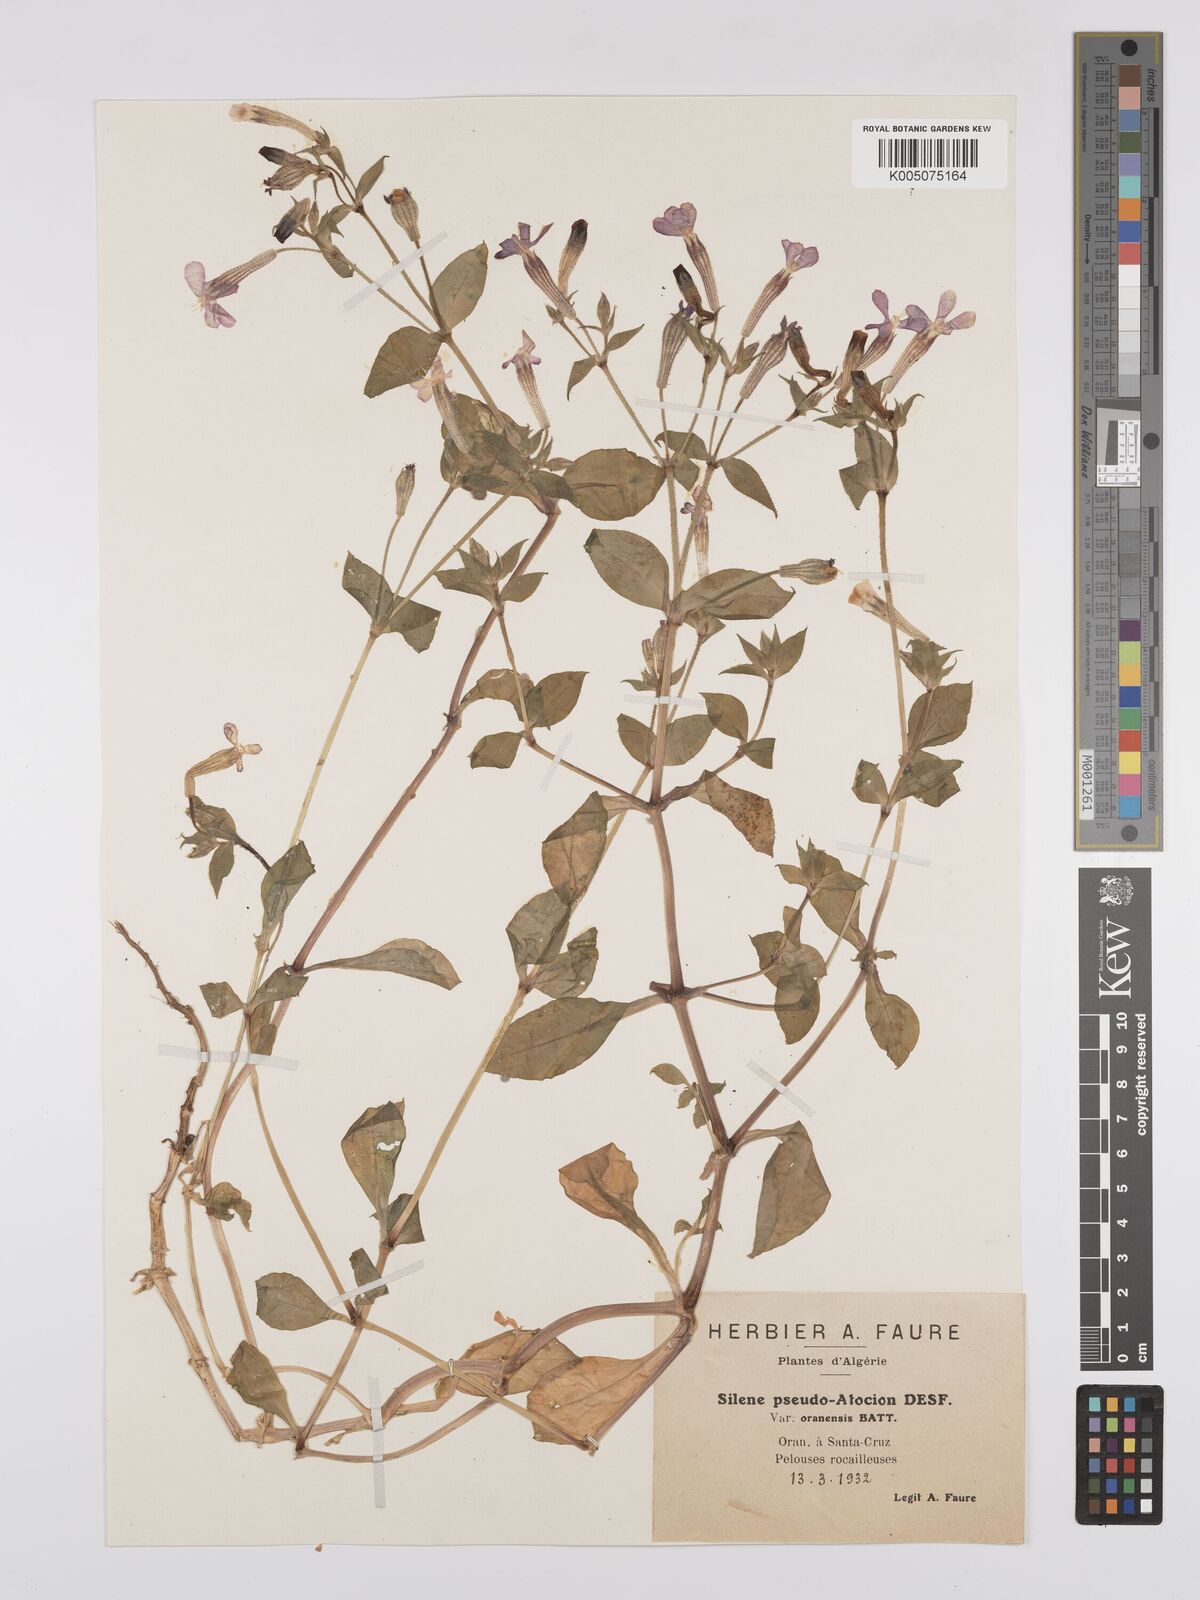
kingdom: Plantae
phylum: Tracheophyta
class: Magnoliopsida
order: Caryophyllales
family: Caryophyllaceae
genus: Silene
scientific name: Silene pseudoatocion
